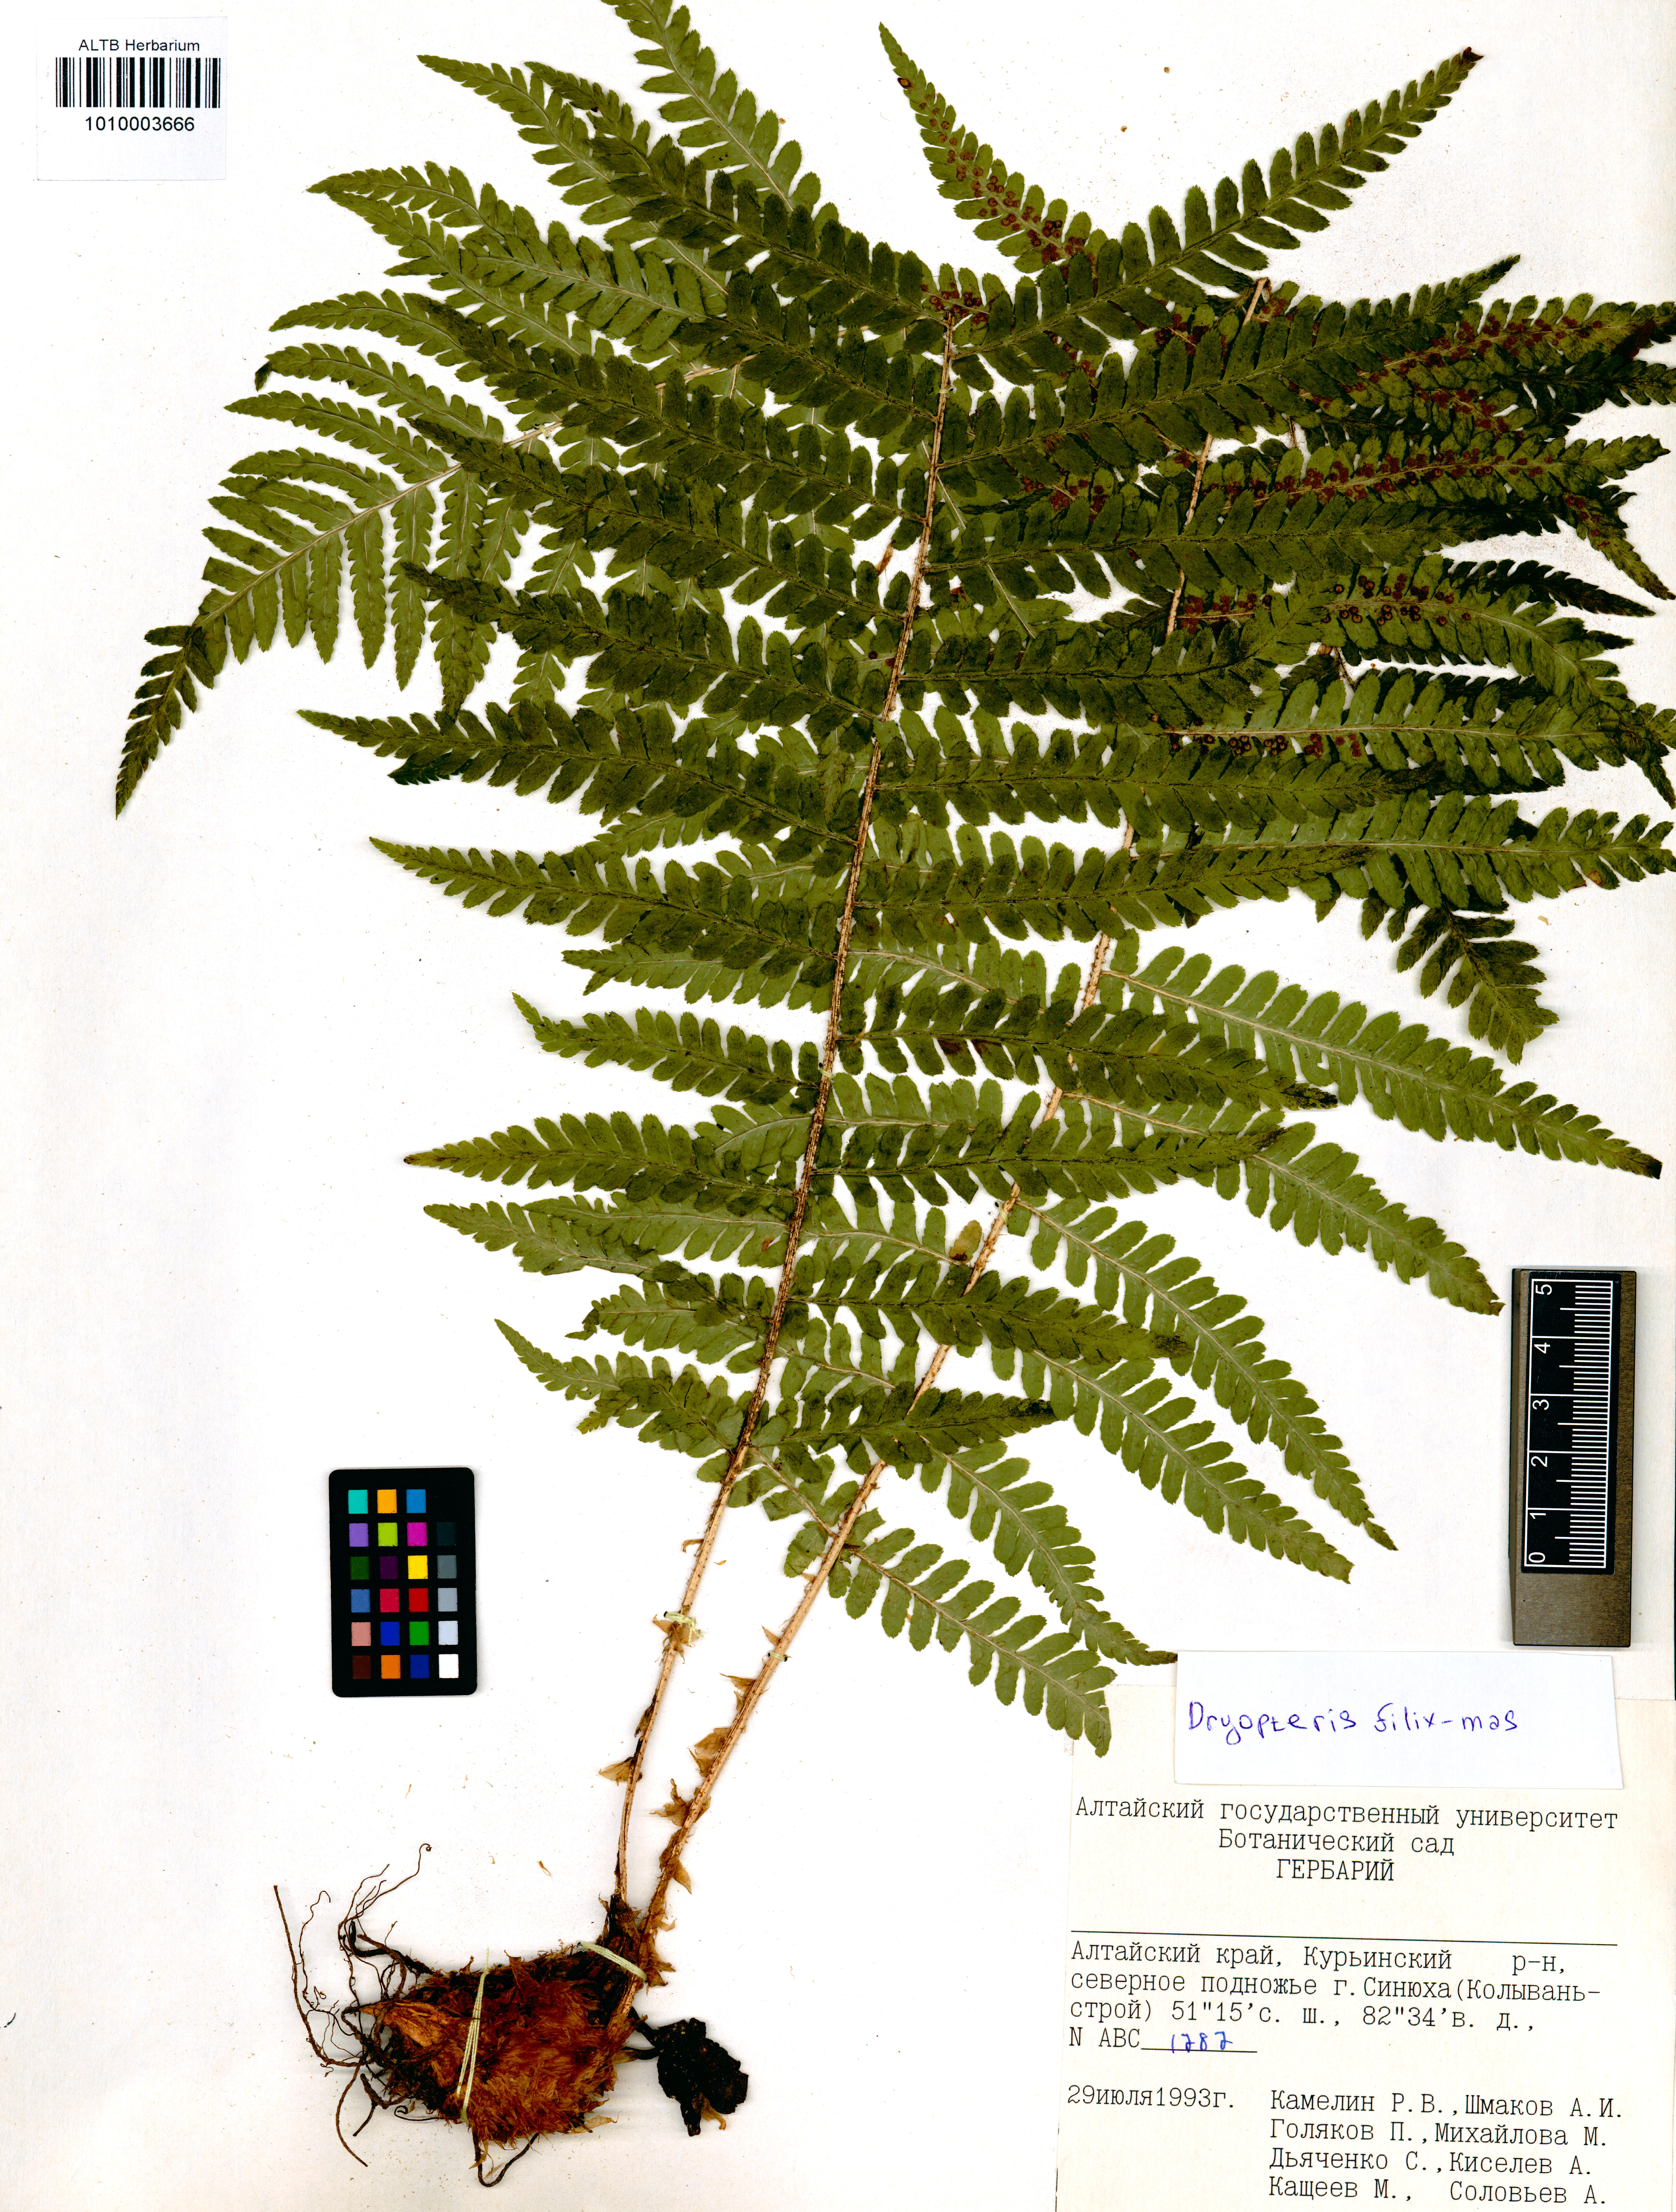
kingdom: Plantae
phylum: Tracheophyta
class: Polypodiopsida
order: Polypodiales
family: Dryopteridaceae
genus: Dryopteris
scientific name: Dryopteris filix-mas
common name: Male fern
